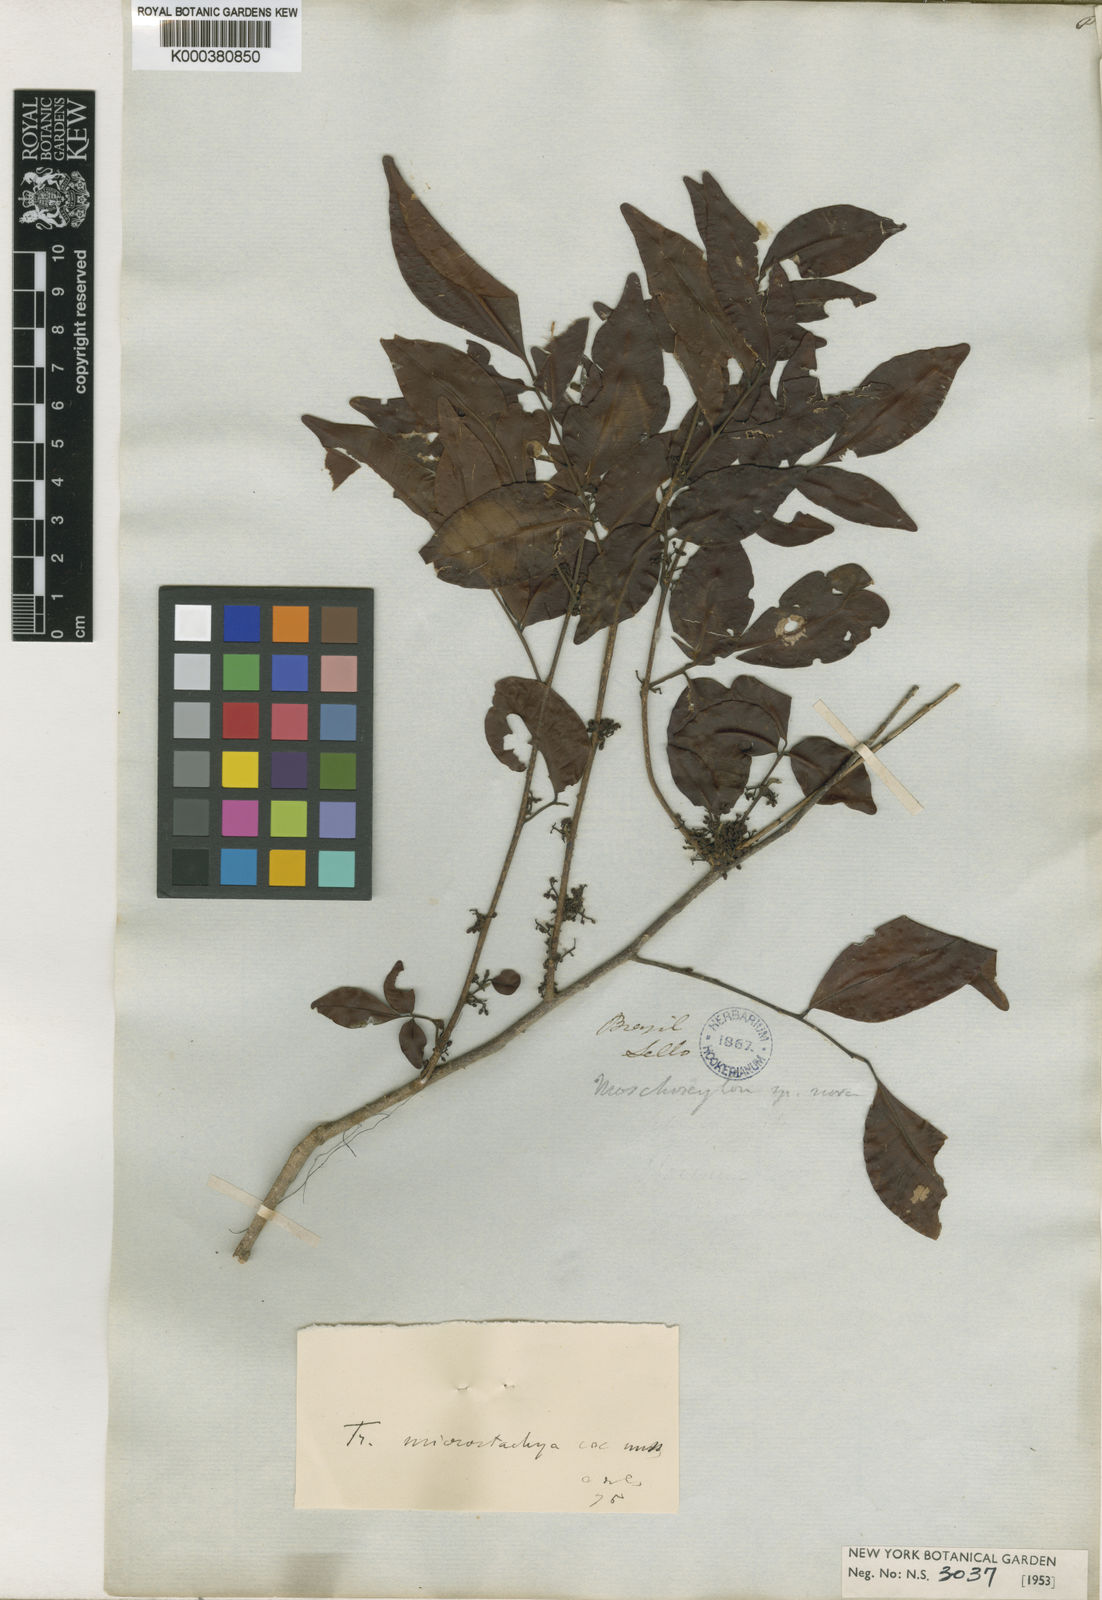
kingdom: Plantae
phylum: Tracheophyta
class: Magnoliopsida
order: Sapindales
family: Meliaceae
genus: Trichilia
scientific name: Trichilia pseudostipularis
